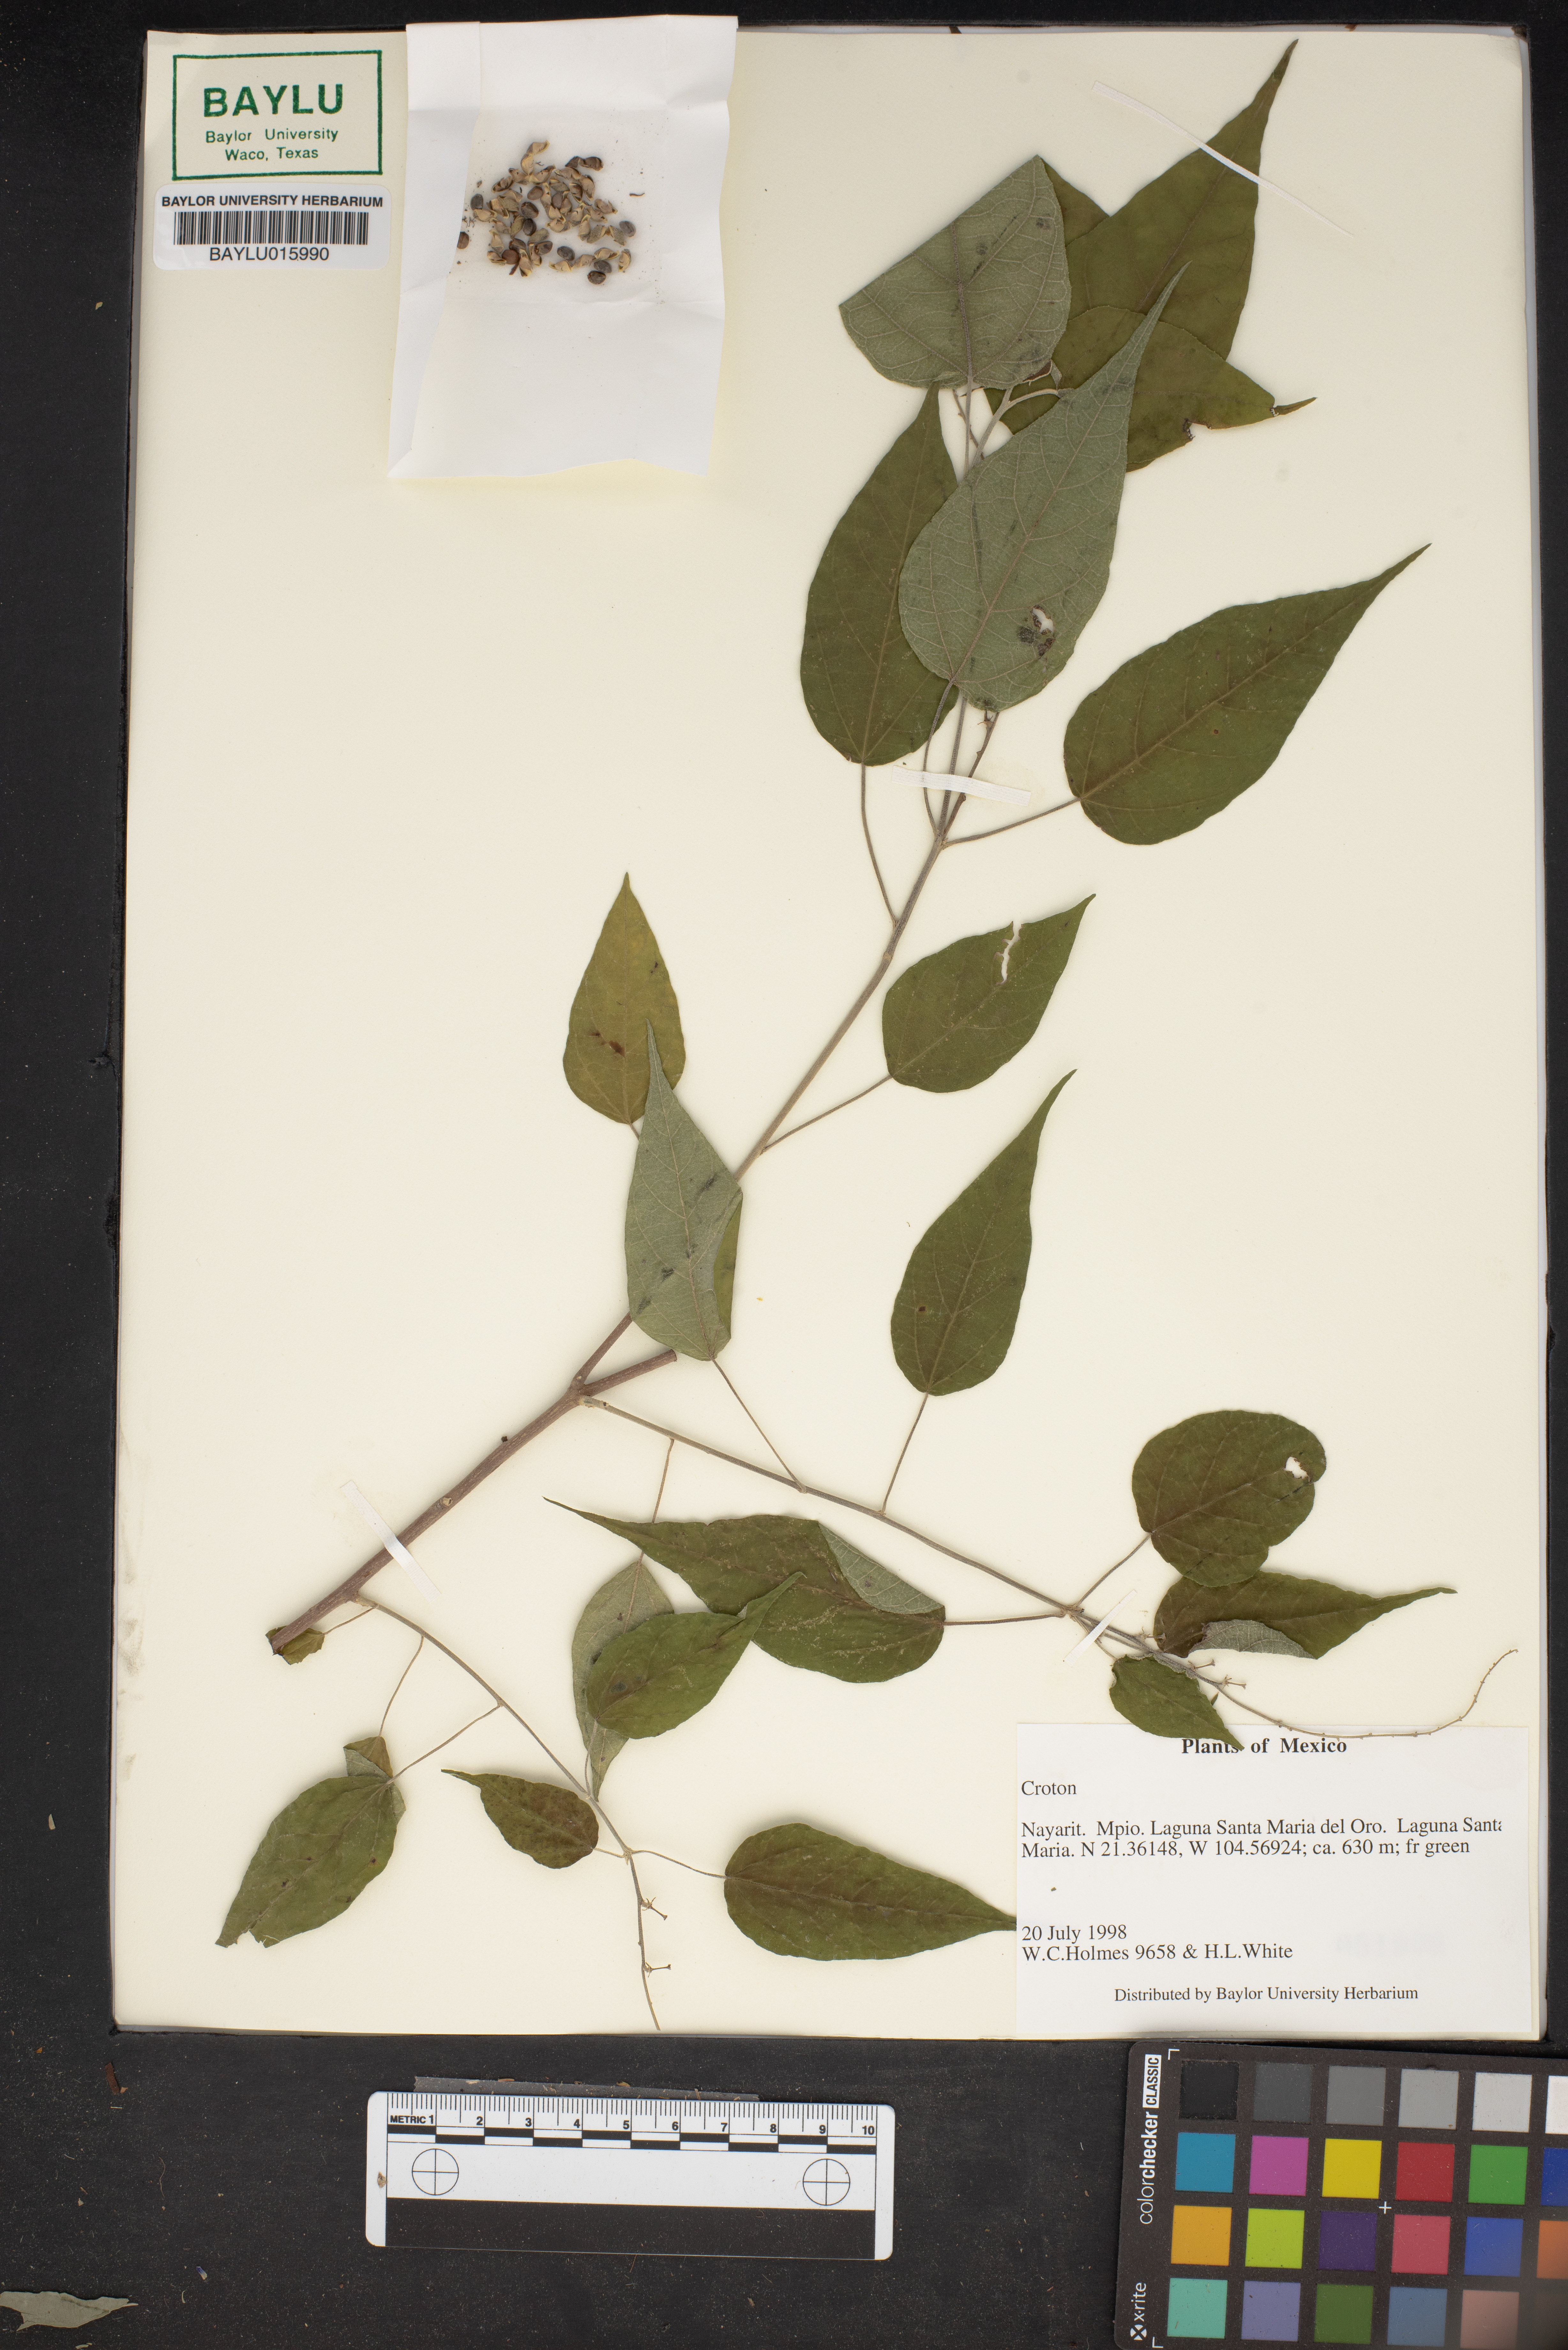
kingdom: Plantae
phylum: Tracheophyta
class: Magnoliopsida
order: Malpighiales
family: Euphorbiaceae
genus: Croton
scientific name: Croton
